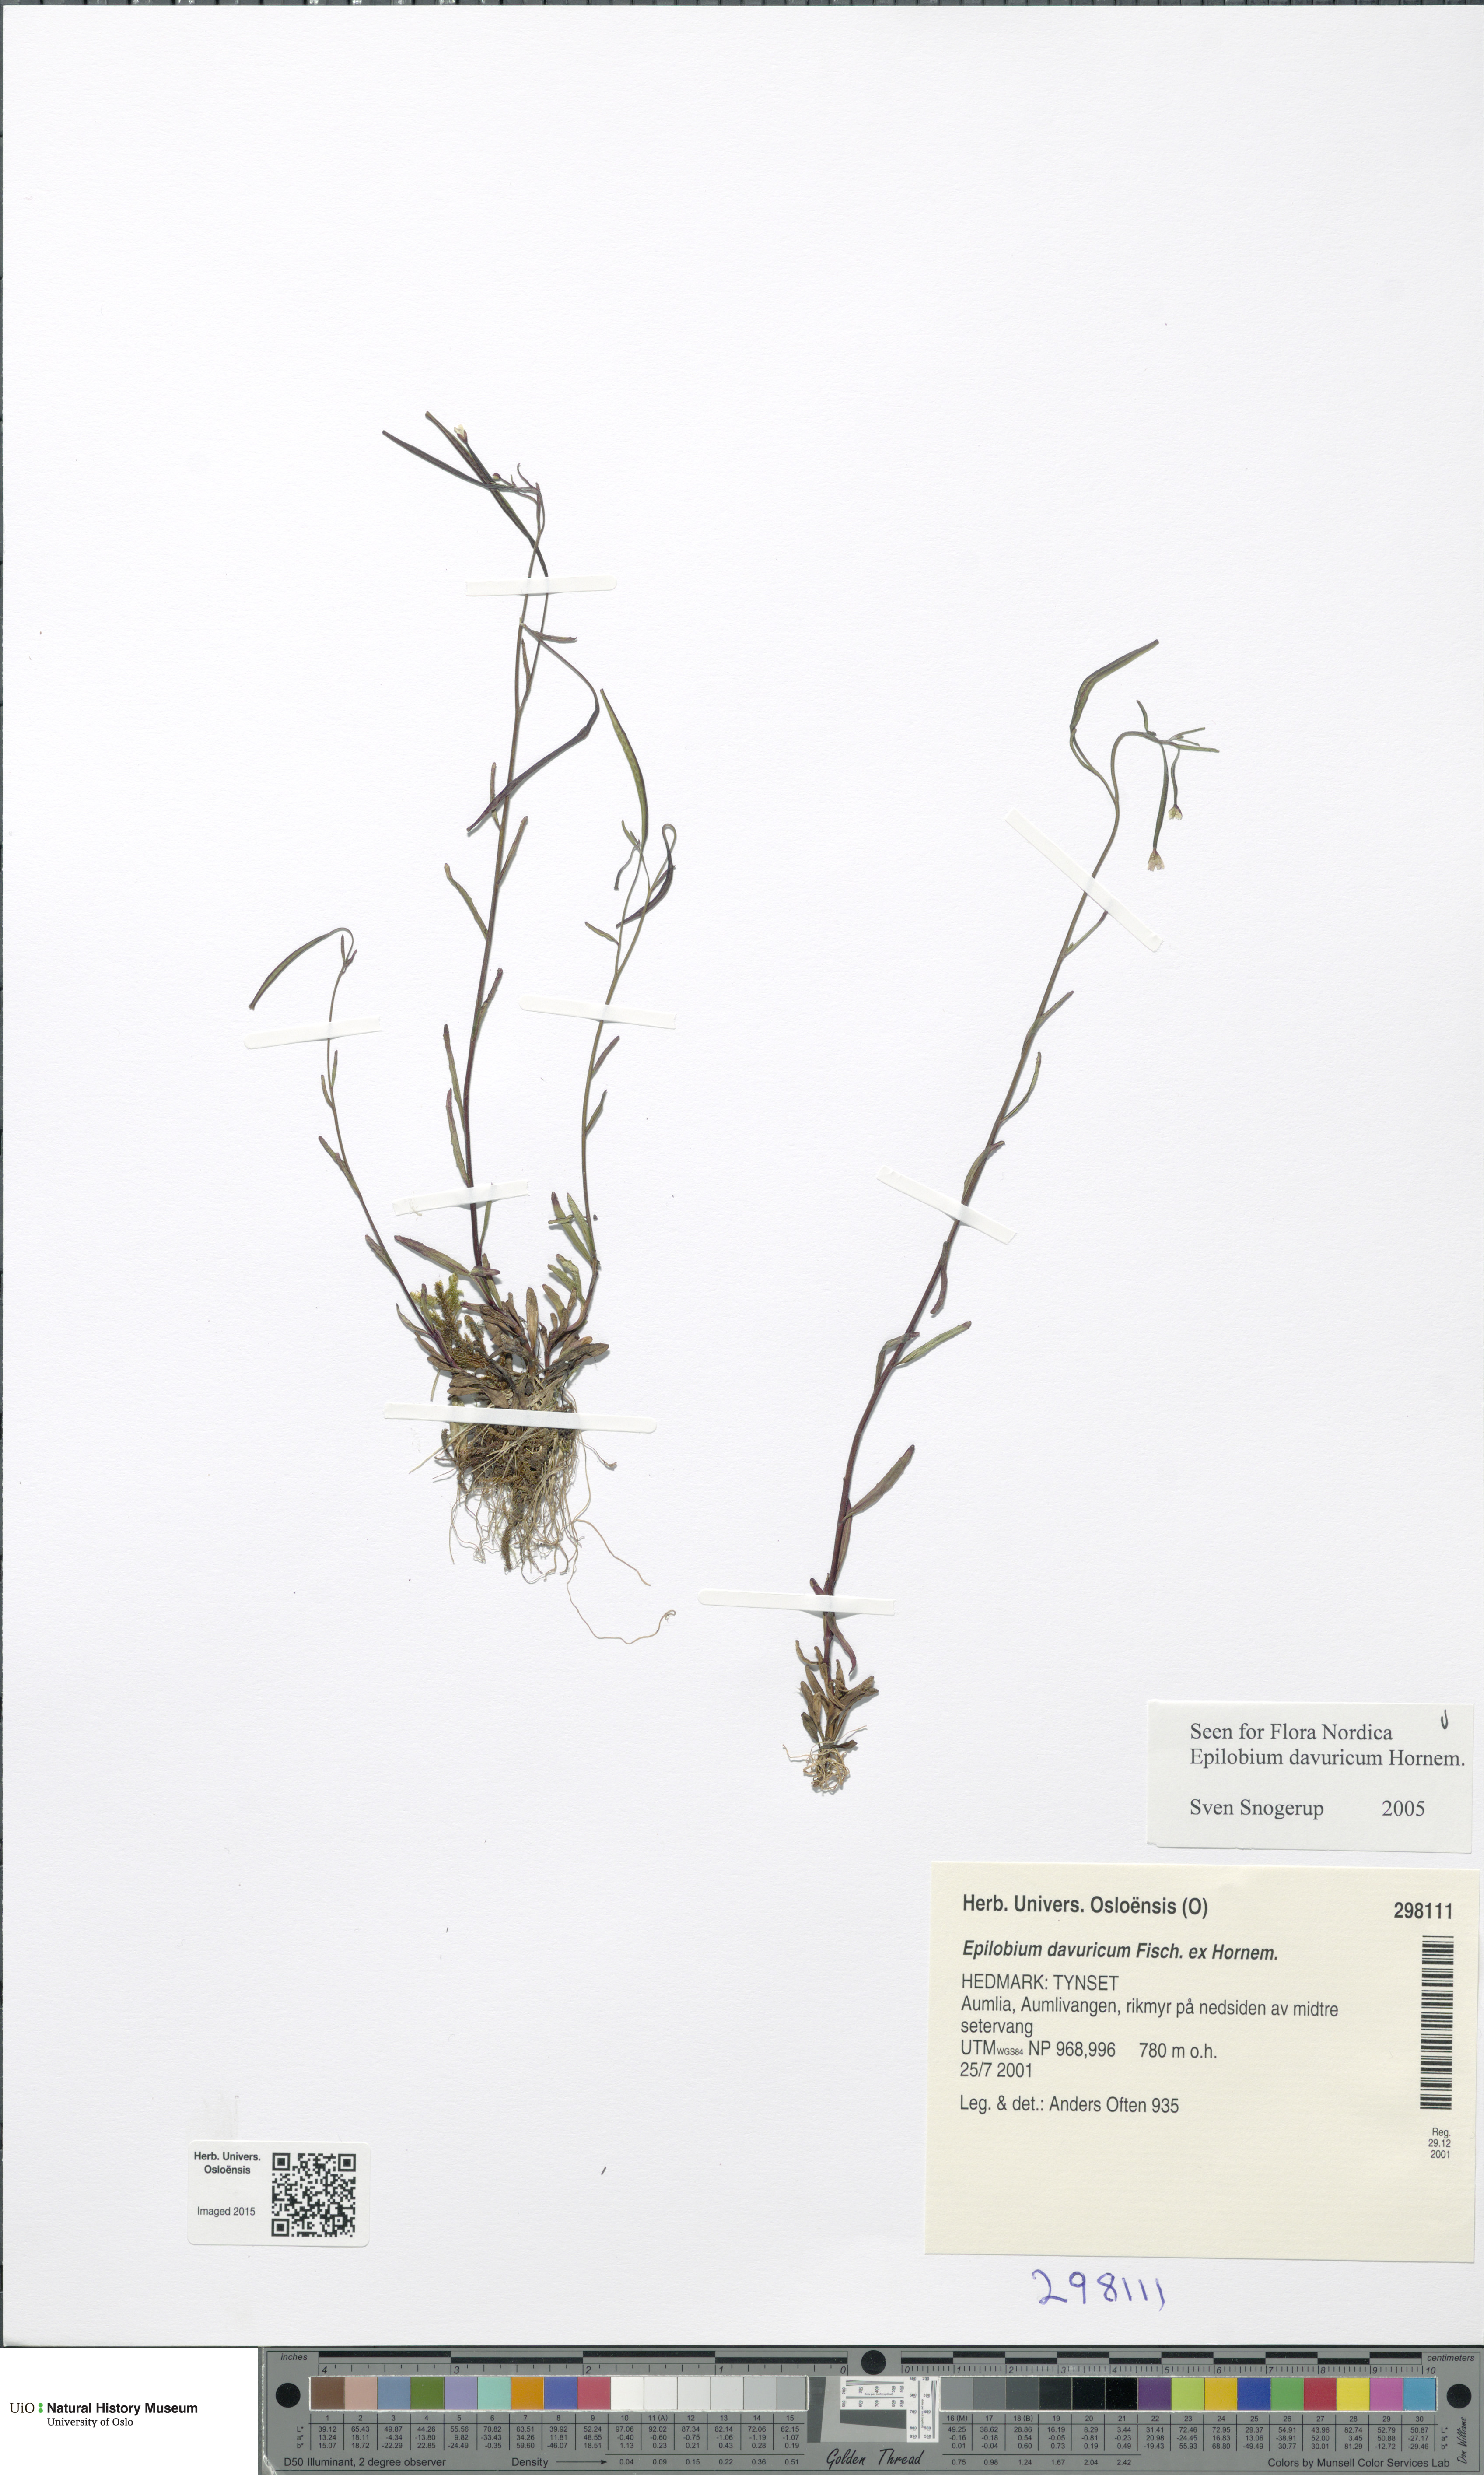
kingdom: Plantae
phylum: Tracheophyta
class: Magnoliopsida
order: Myrtales
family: Onagraceae
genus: Epilobium
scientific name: Epilobium davuricum
